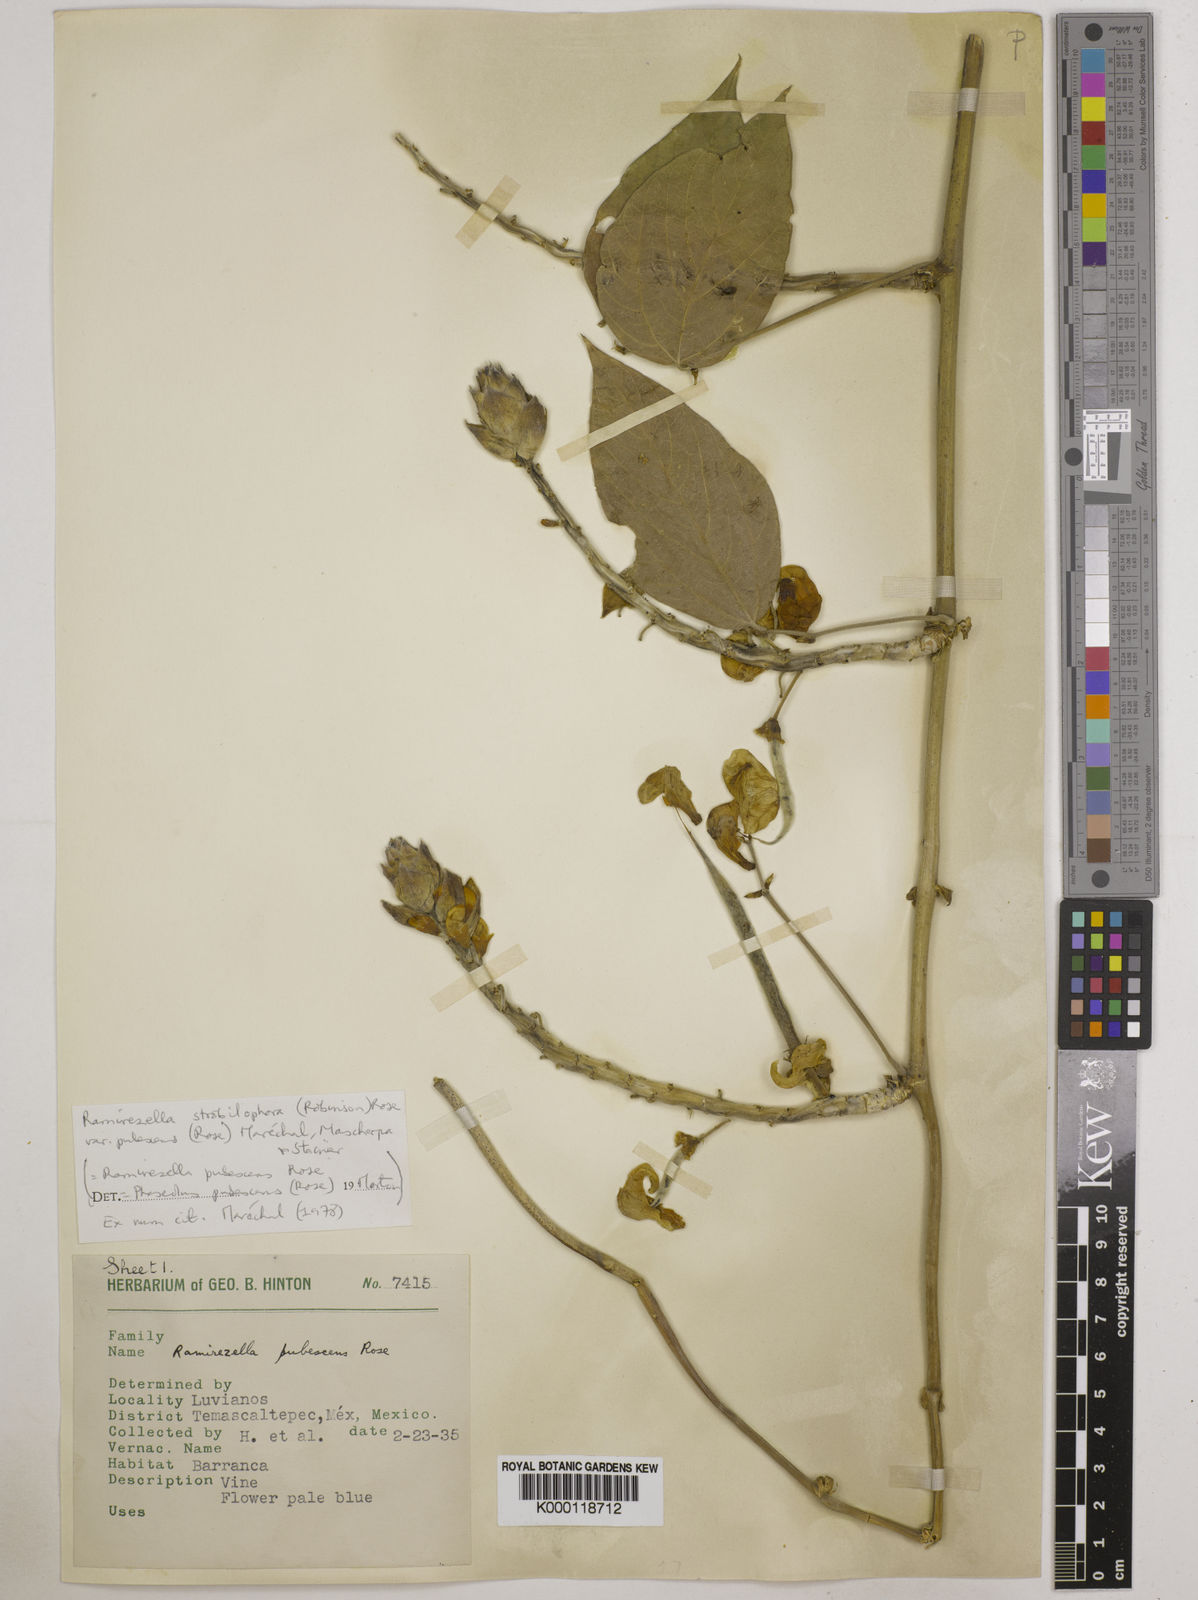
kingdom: Plantae
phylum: Tracheophyta
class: Magnoliopsida
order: Fabales
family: Fabaceae
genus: Ramirezella
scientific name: Ramirezella strobilophora
